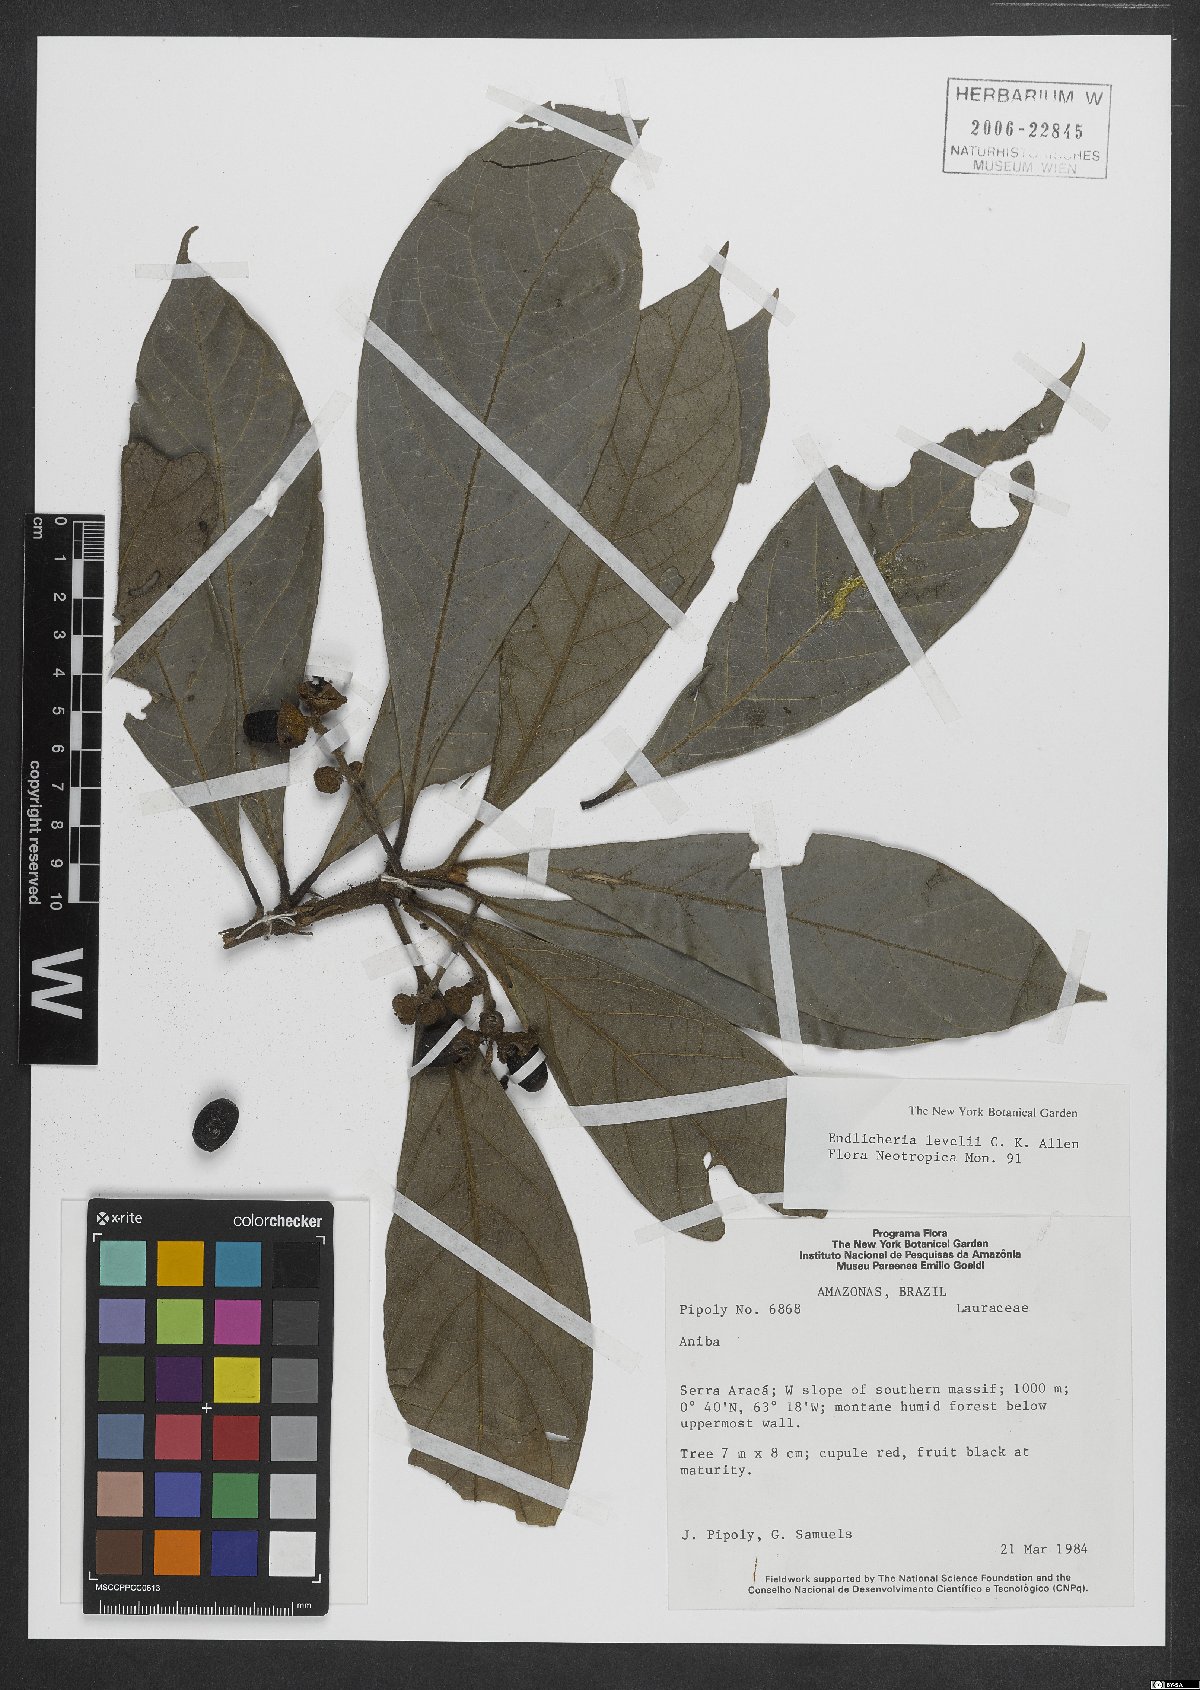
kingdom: Plantae
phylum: Tracheophyta
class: Magnoliopsida
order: Laurales
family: Lauraceae
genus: Endlicheria
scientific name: Endlicheria levelii
